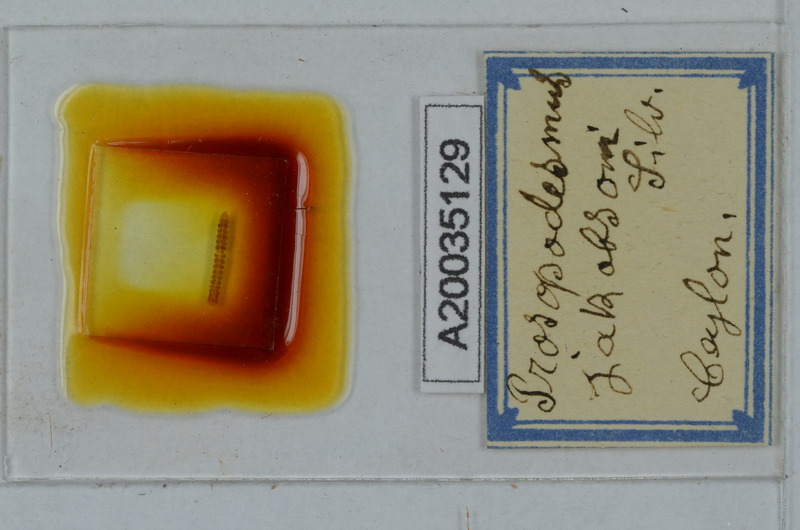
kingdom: Animalia
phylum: Arthropoda
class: Diplopoda
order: Polydesmida
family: Haplodesmidae
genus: Prosopodesmus
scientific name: Prosopodesmus jacobsoni
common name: Millipede
